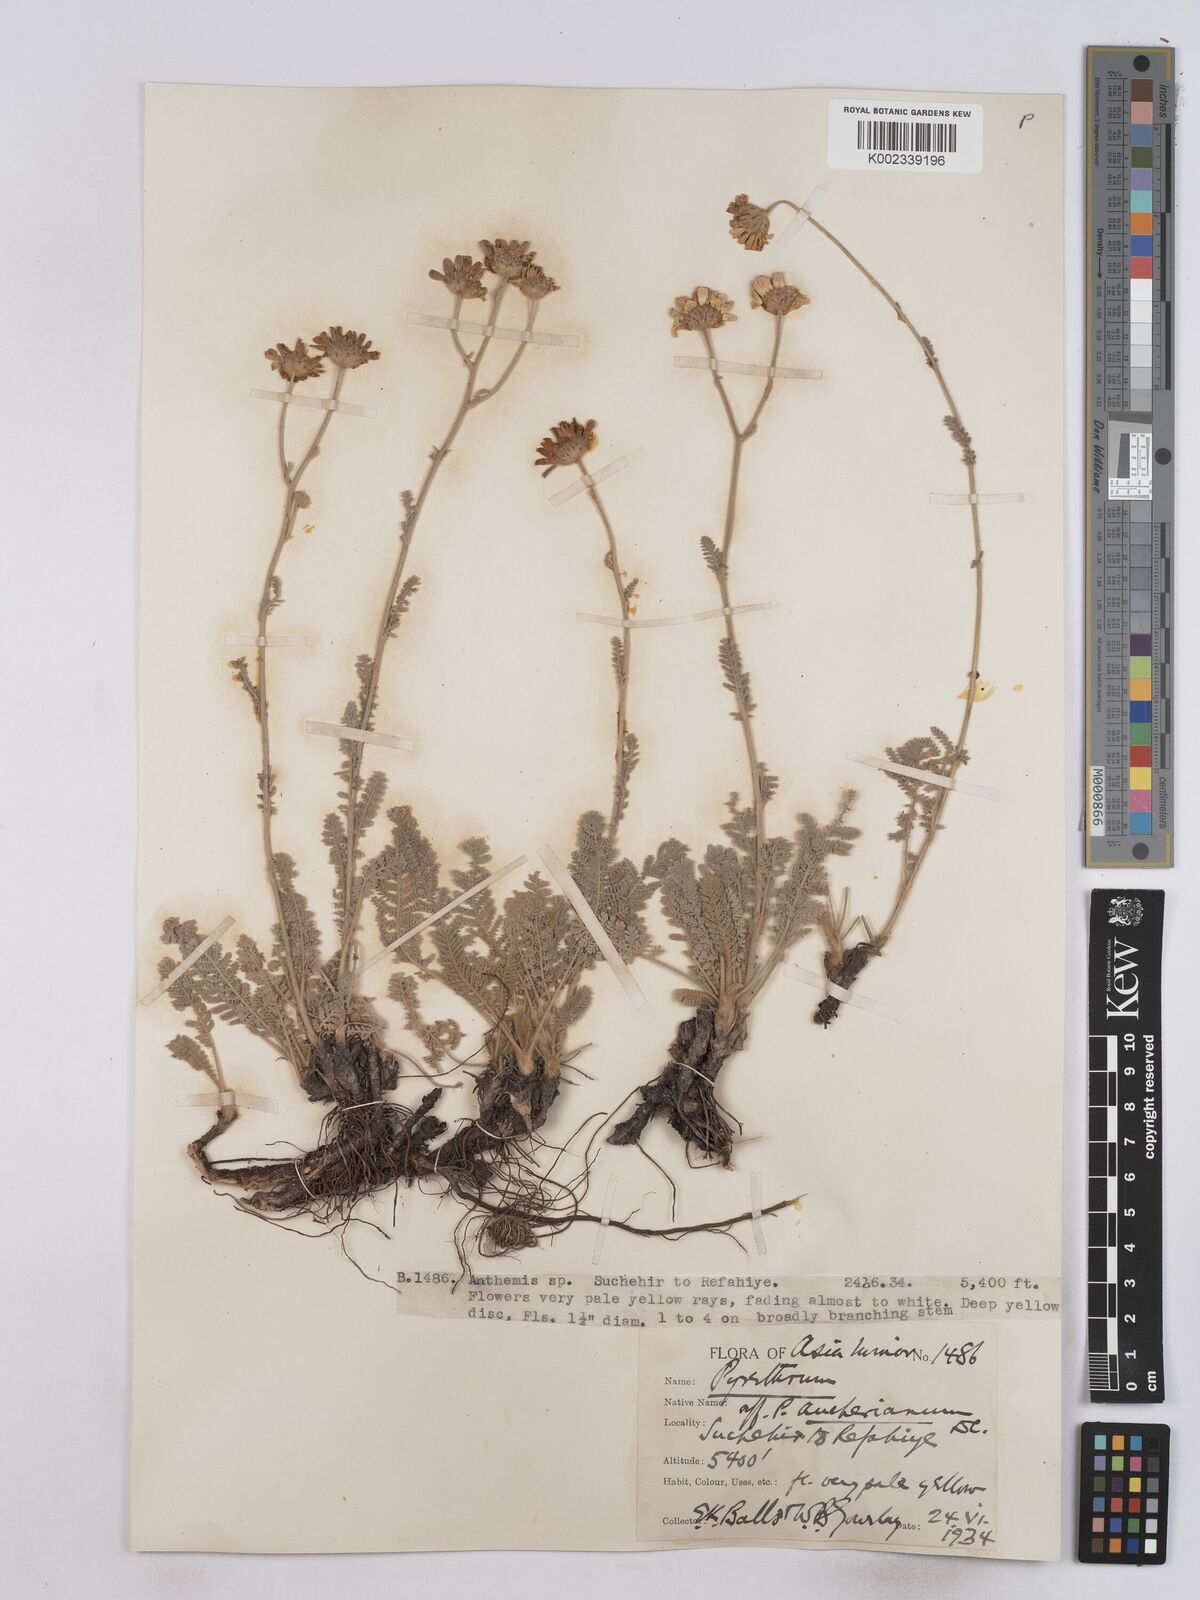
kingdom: Plantae
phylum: Tracheophyta
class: Magnoliopsida
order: Asterales
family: Asteraceae
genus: Tanacetum
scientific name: Tanacetum aucherianum
